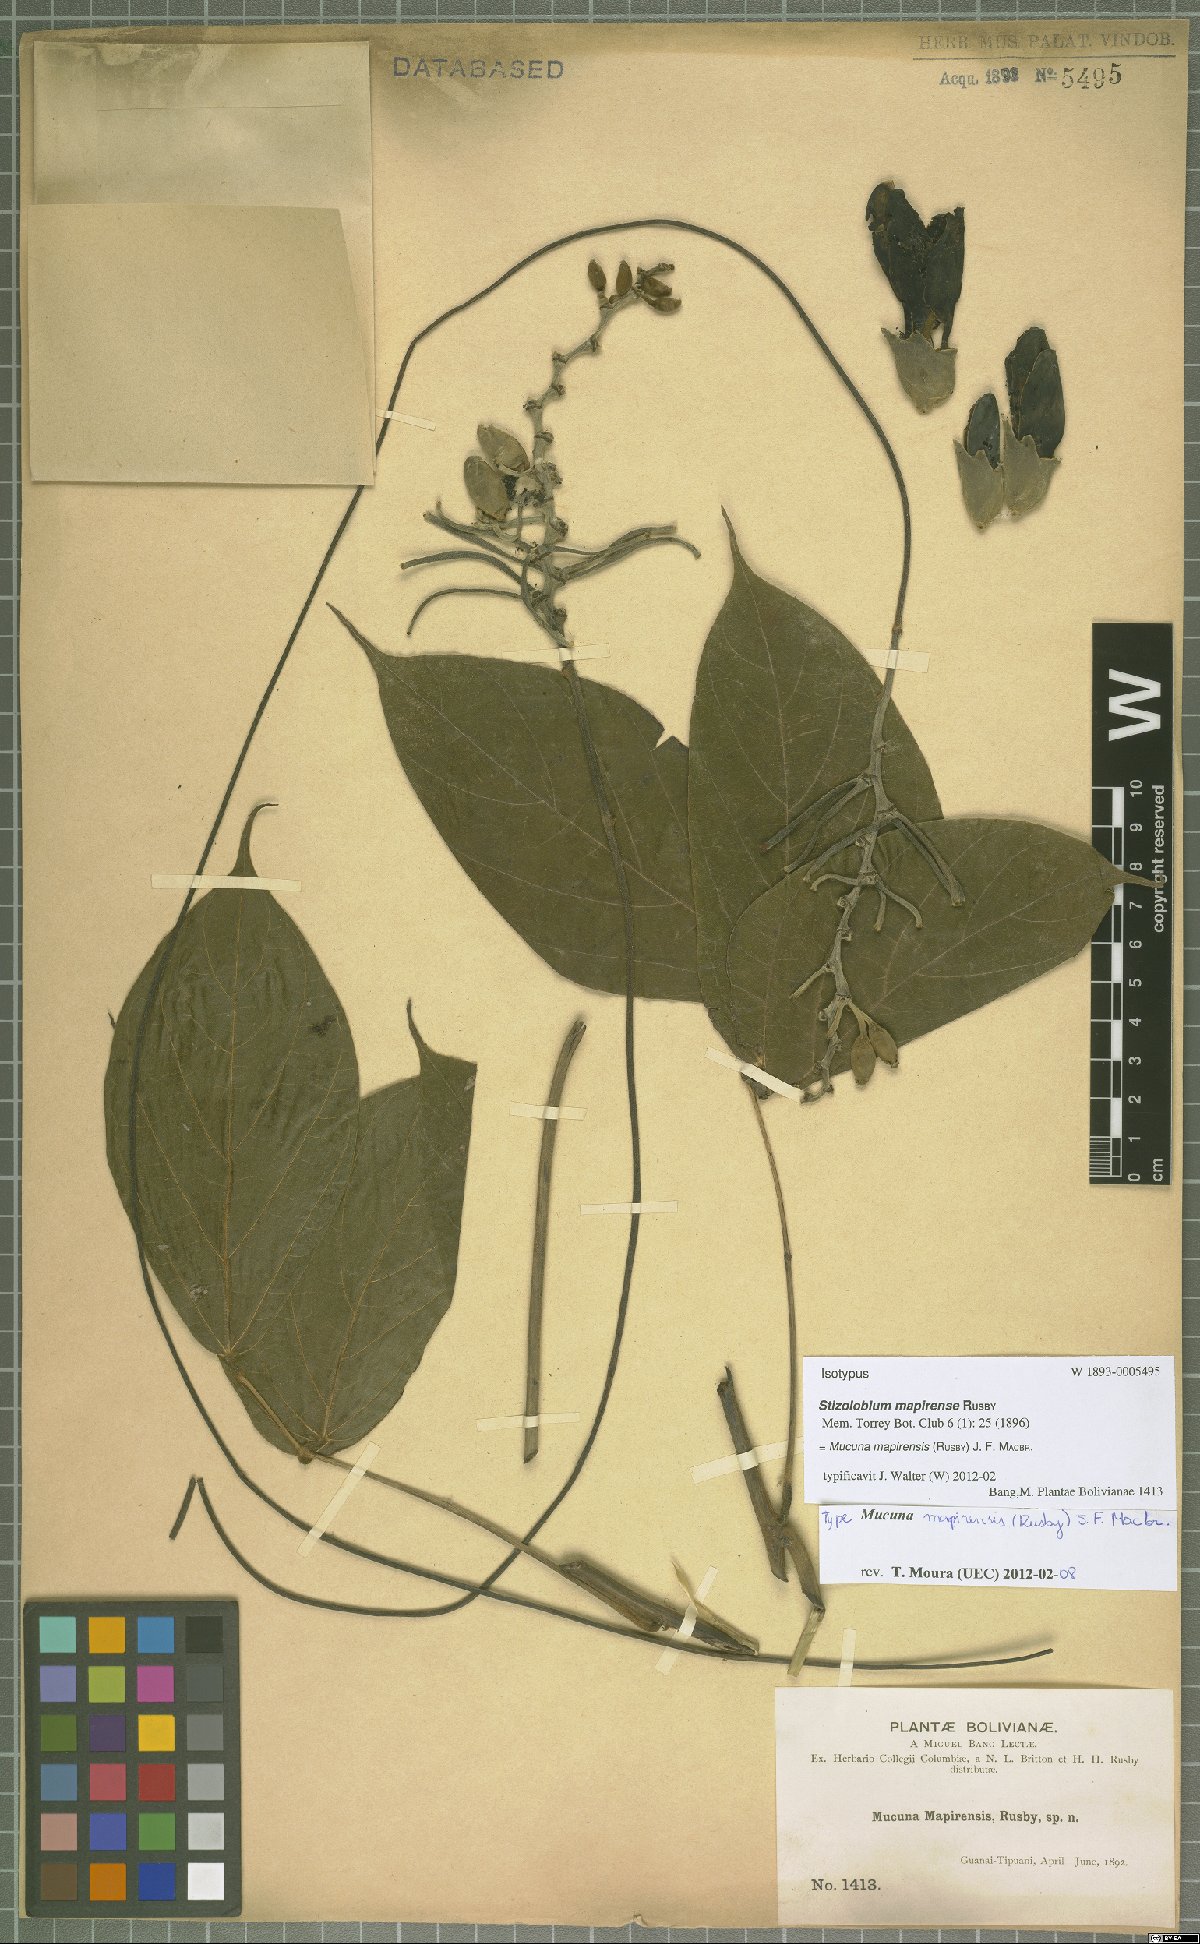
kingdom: Plantae
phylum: Tracheophyta
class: Magnoliopsida
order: Fabales
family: Fabaceae
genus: Mucuna
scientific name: Mucuna mitis
